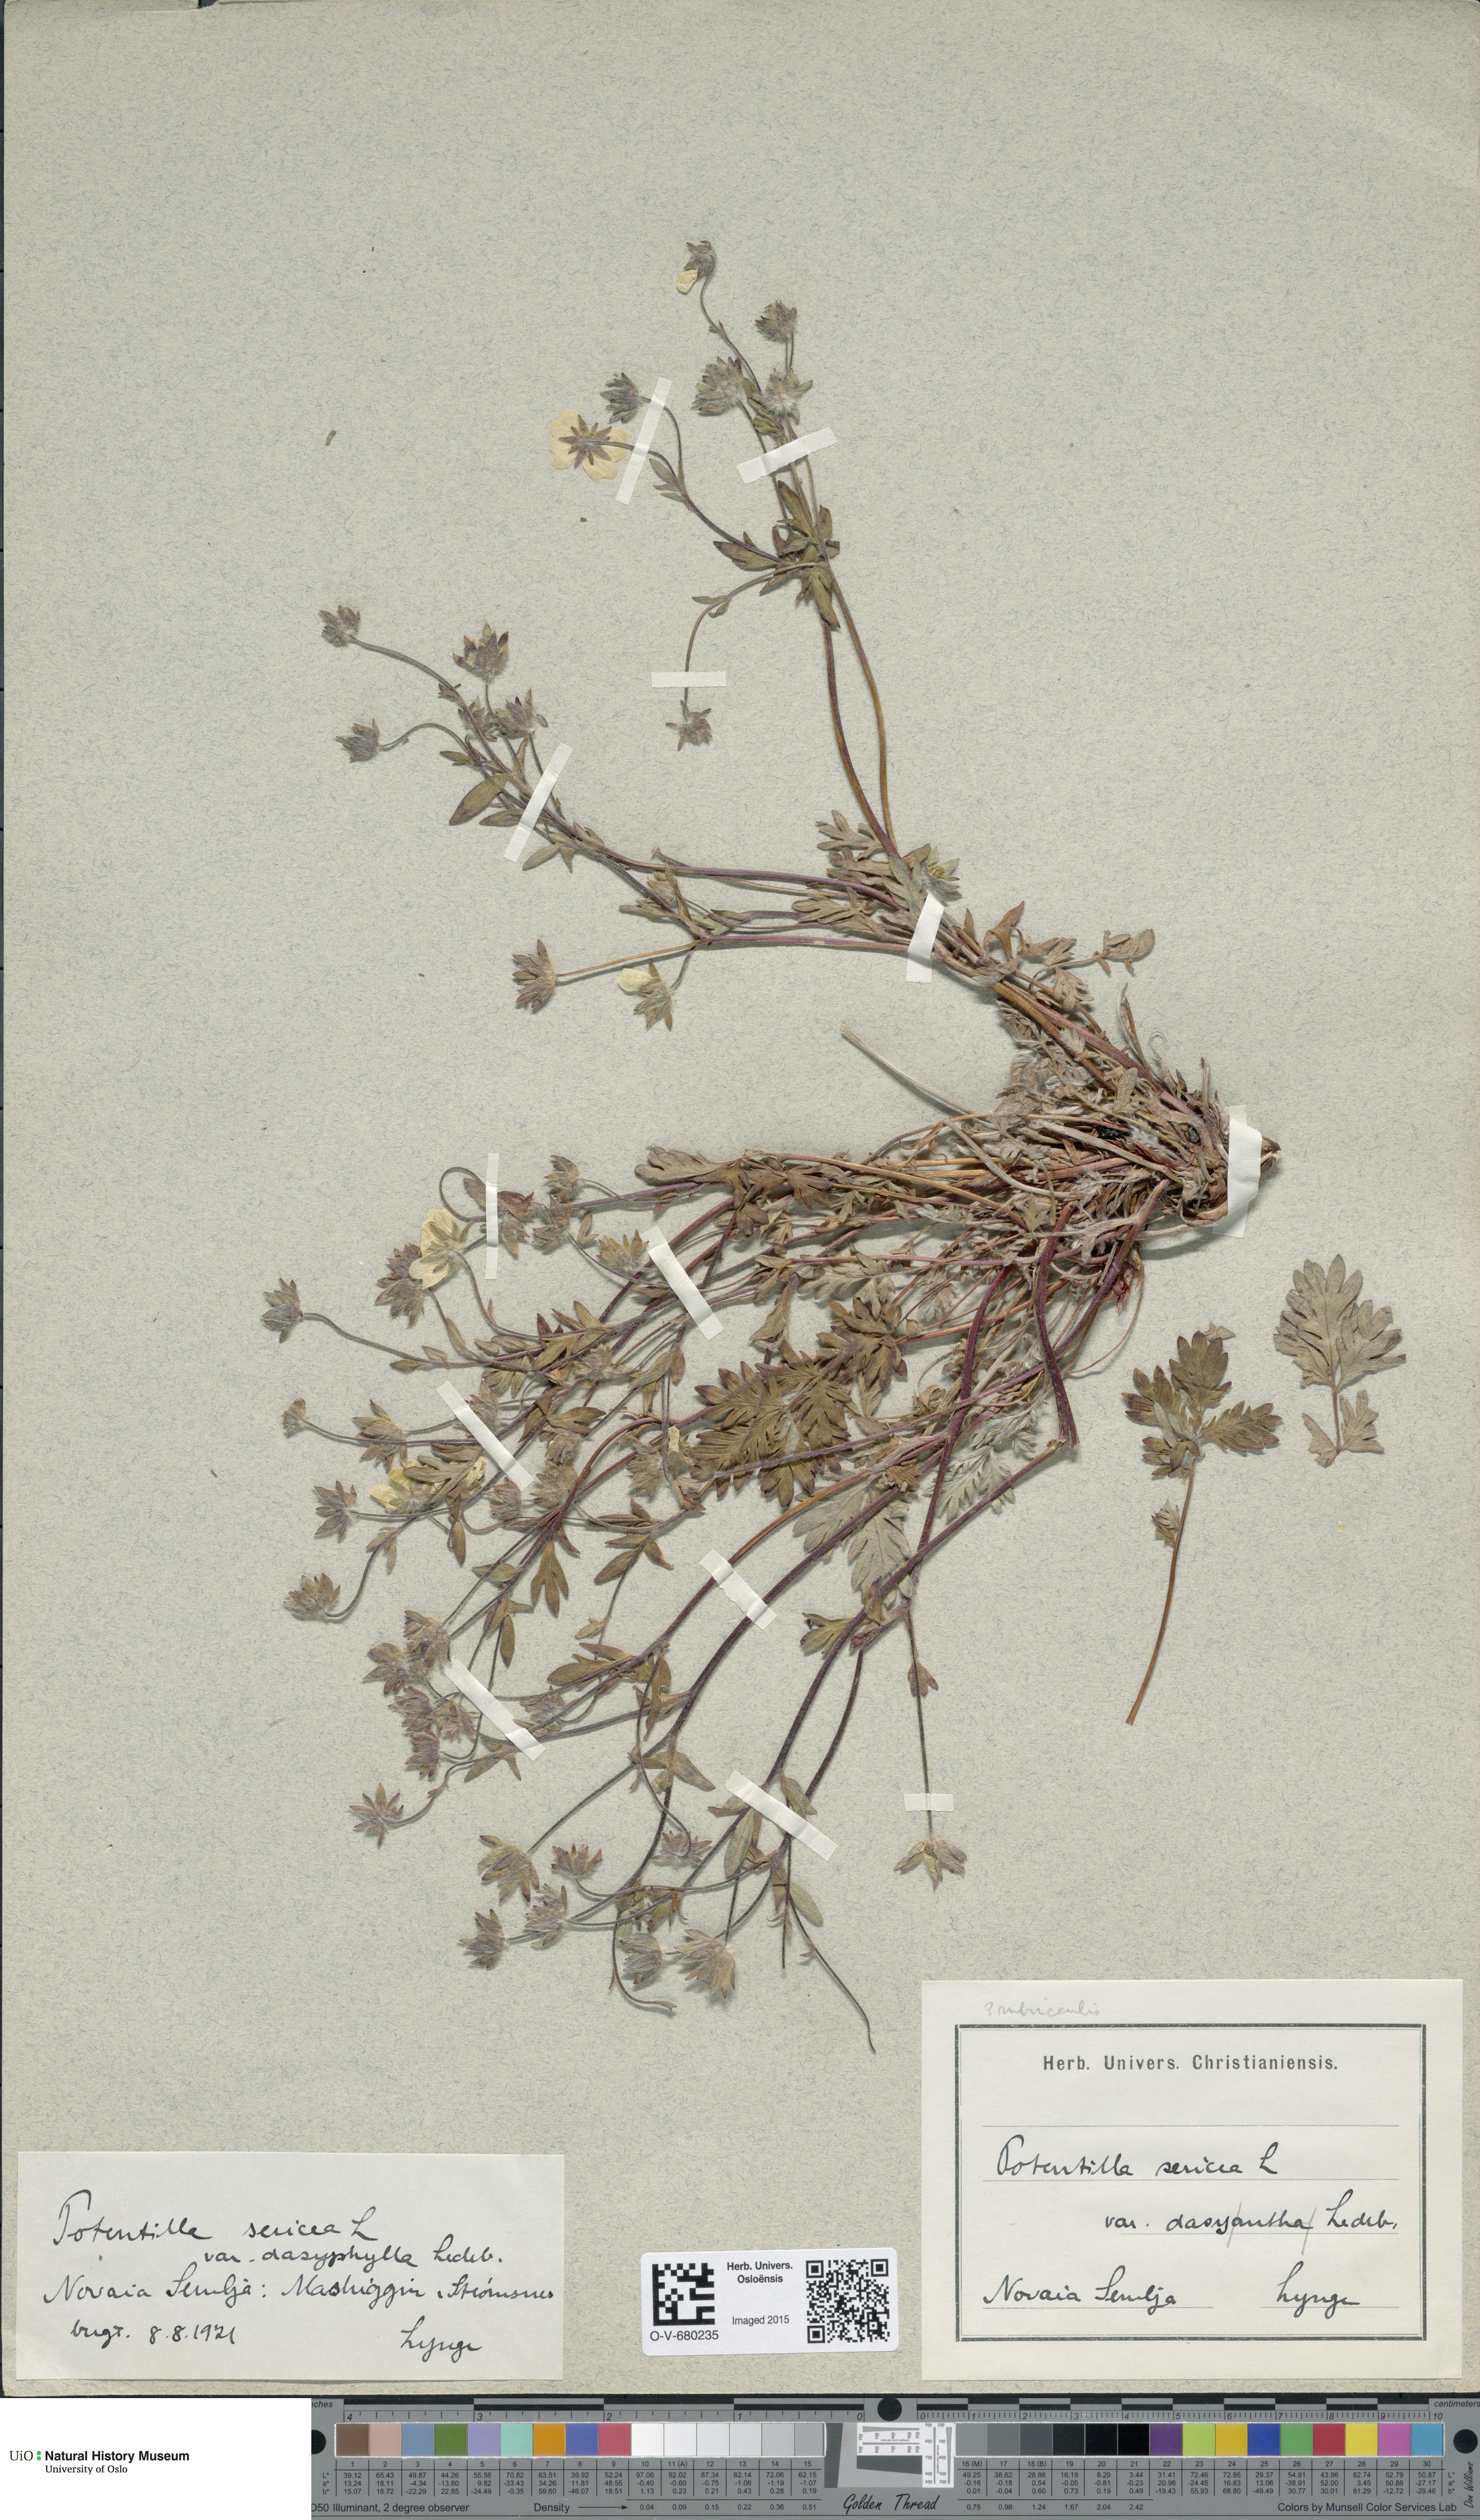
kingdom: Plantae
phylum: Tracheophyta
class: Magnoliopsida
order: Rosales
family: Rosaceae
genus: Potentilla
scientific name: Potentilla sericea
